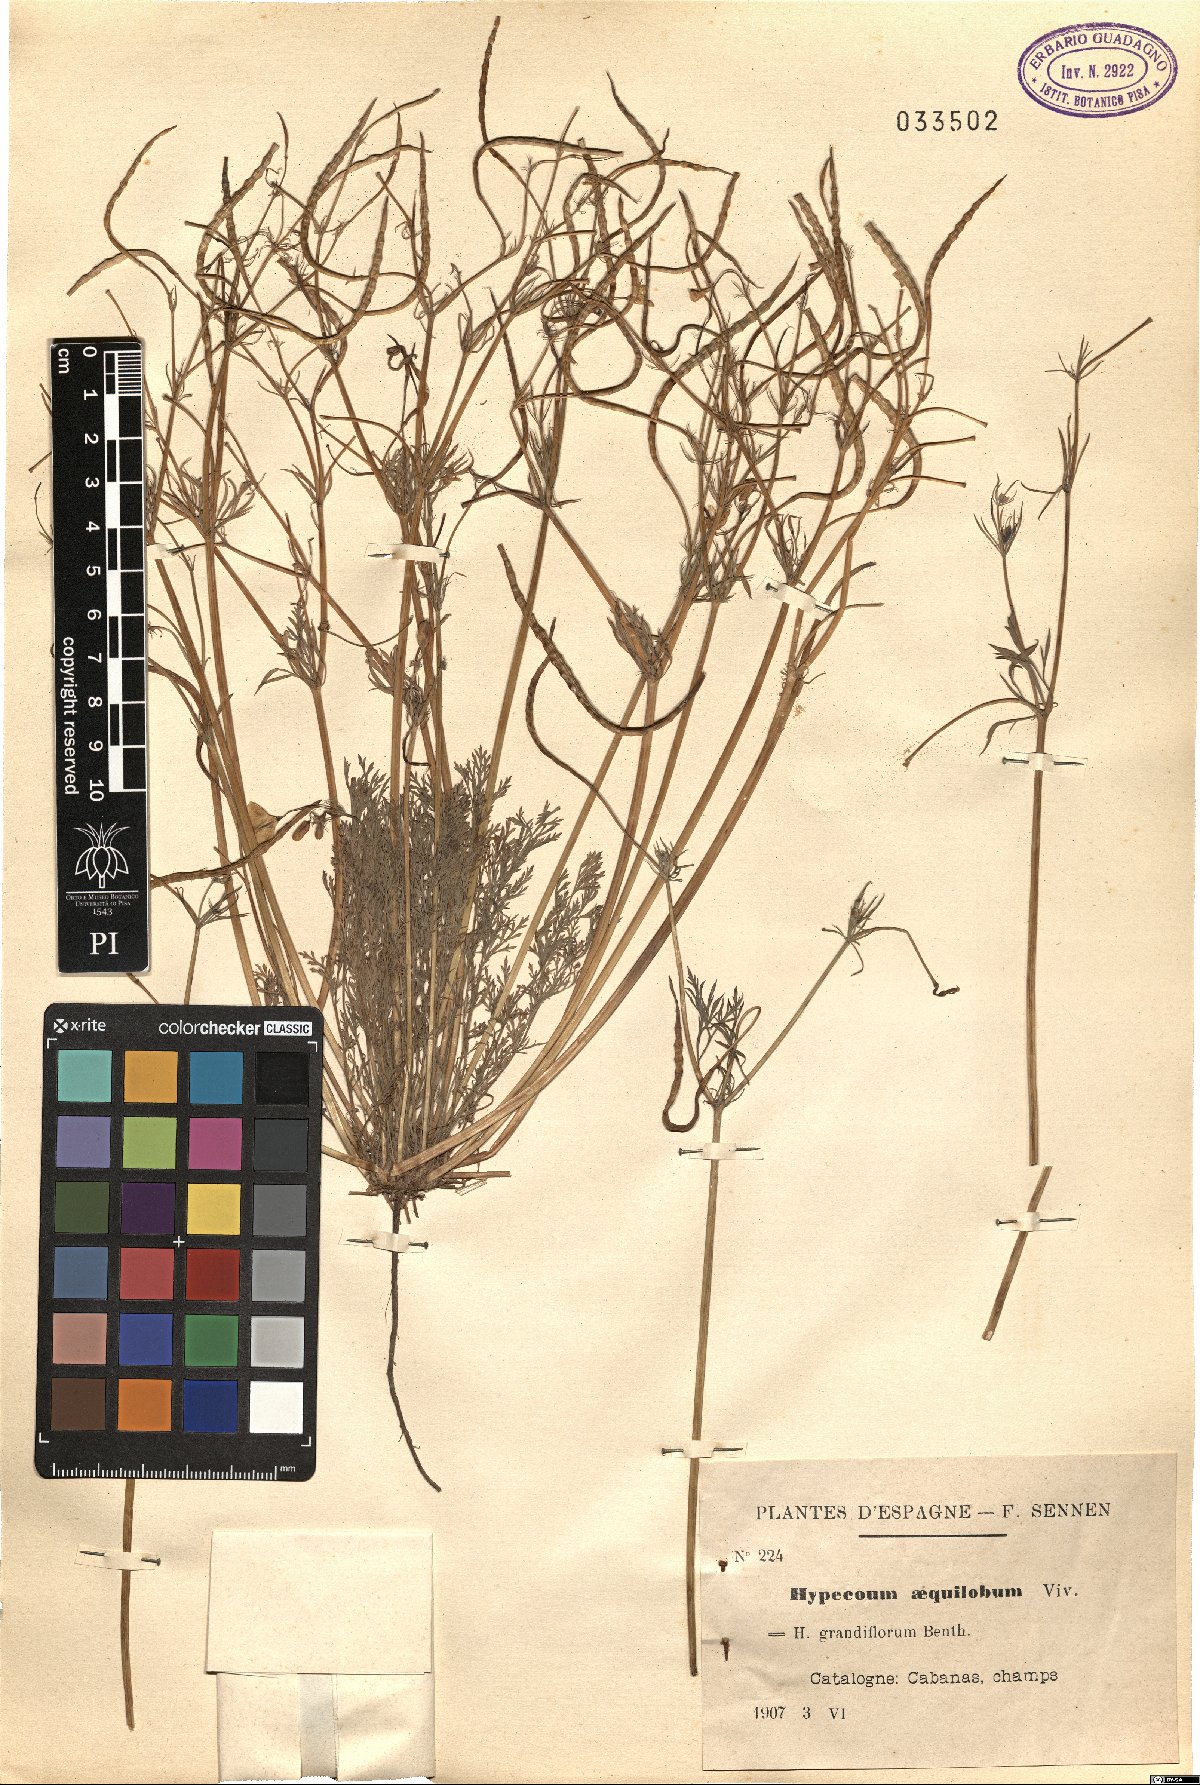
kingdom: Plantae
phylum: Tracheophyta
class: Magnoliopsida
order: Ranunculales
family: Papaveraceae
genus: Hypecoum
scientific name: Hypecoum aequilobum
